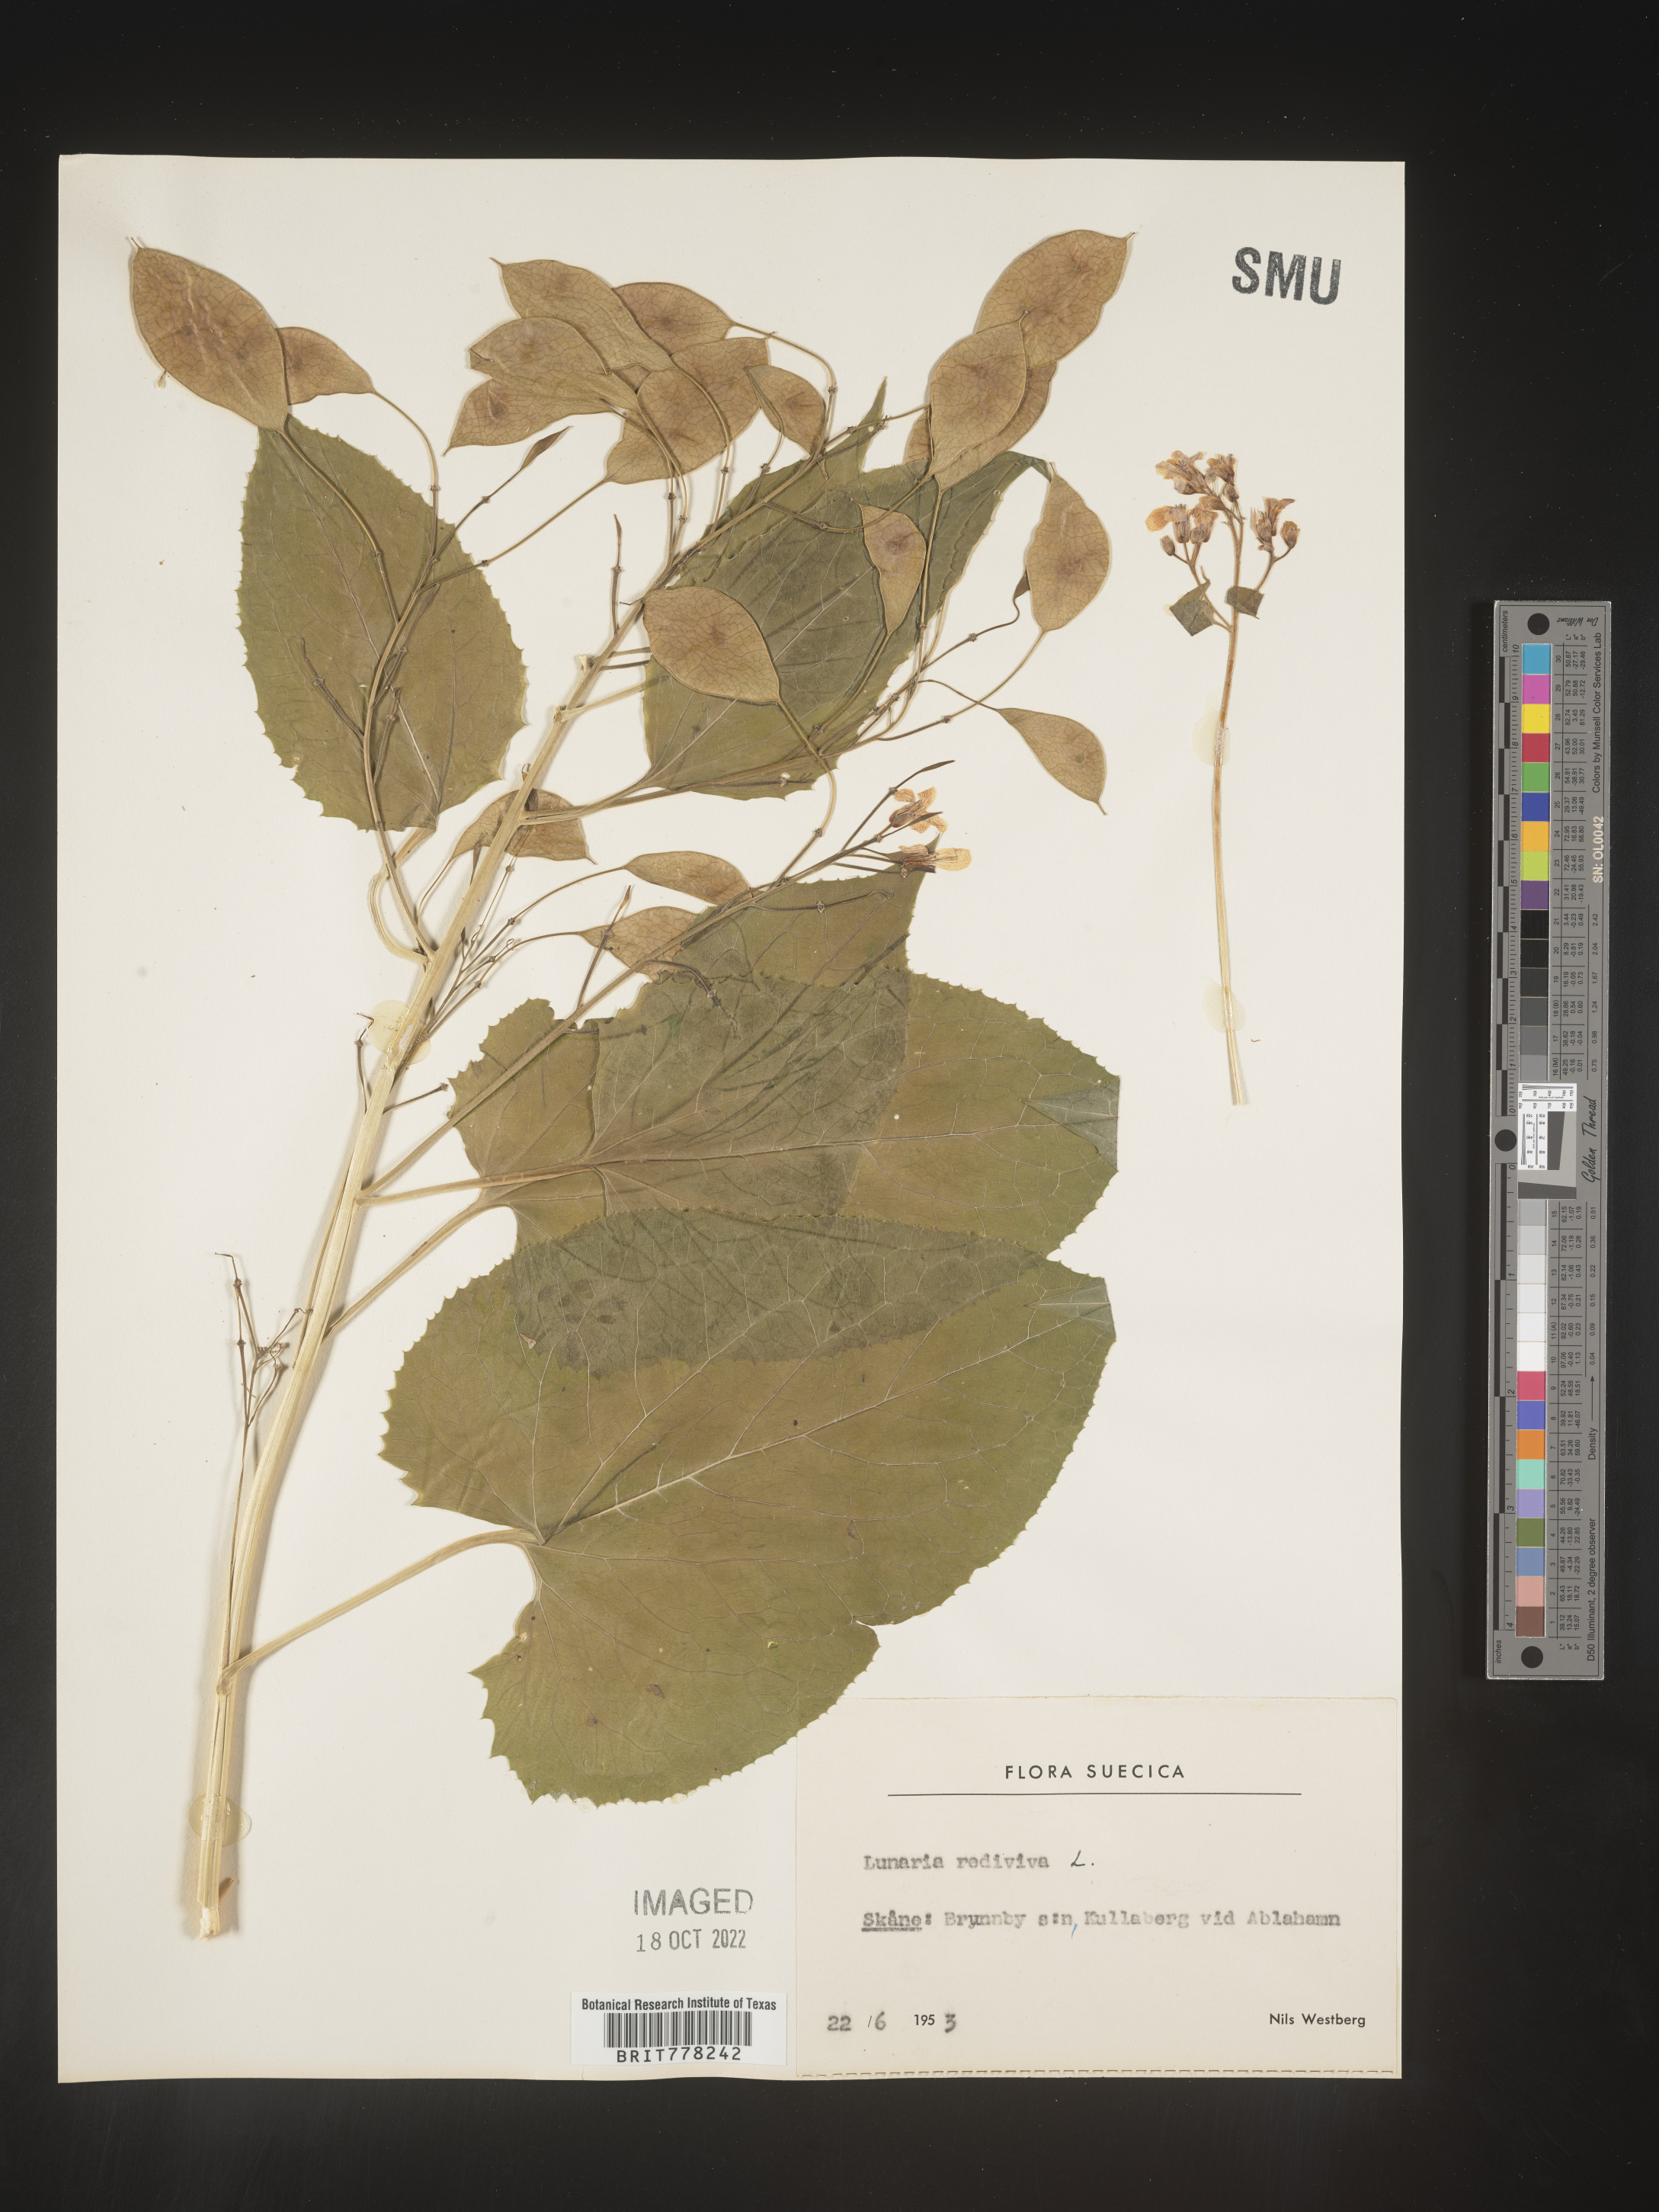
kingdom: Plantae
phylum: Tracheophyta
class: Magnoliopsida
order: Brassicales
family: Brassicaceae
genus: Lunaria
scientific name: Lunaria
